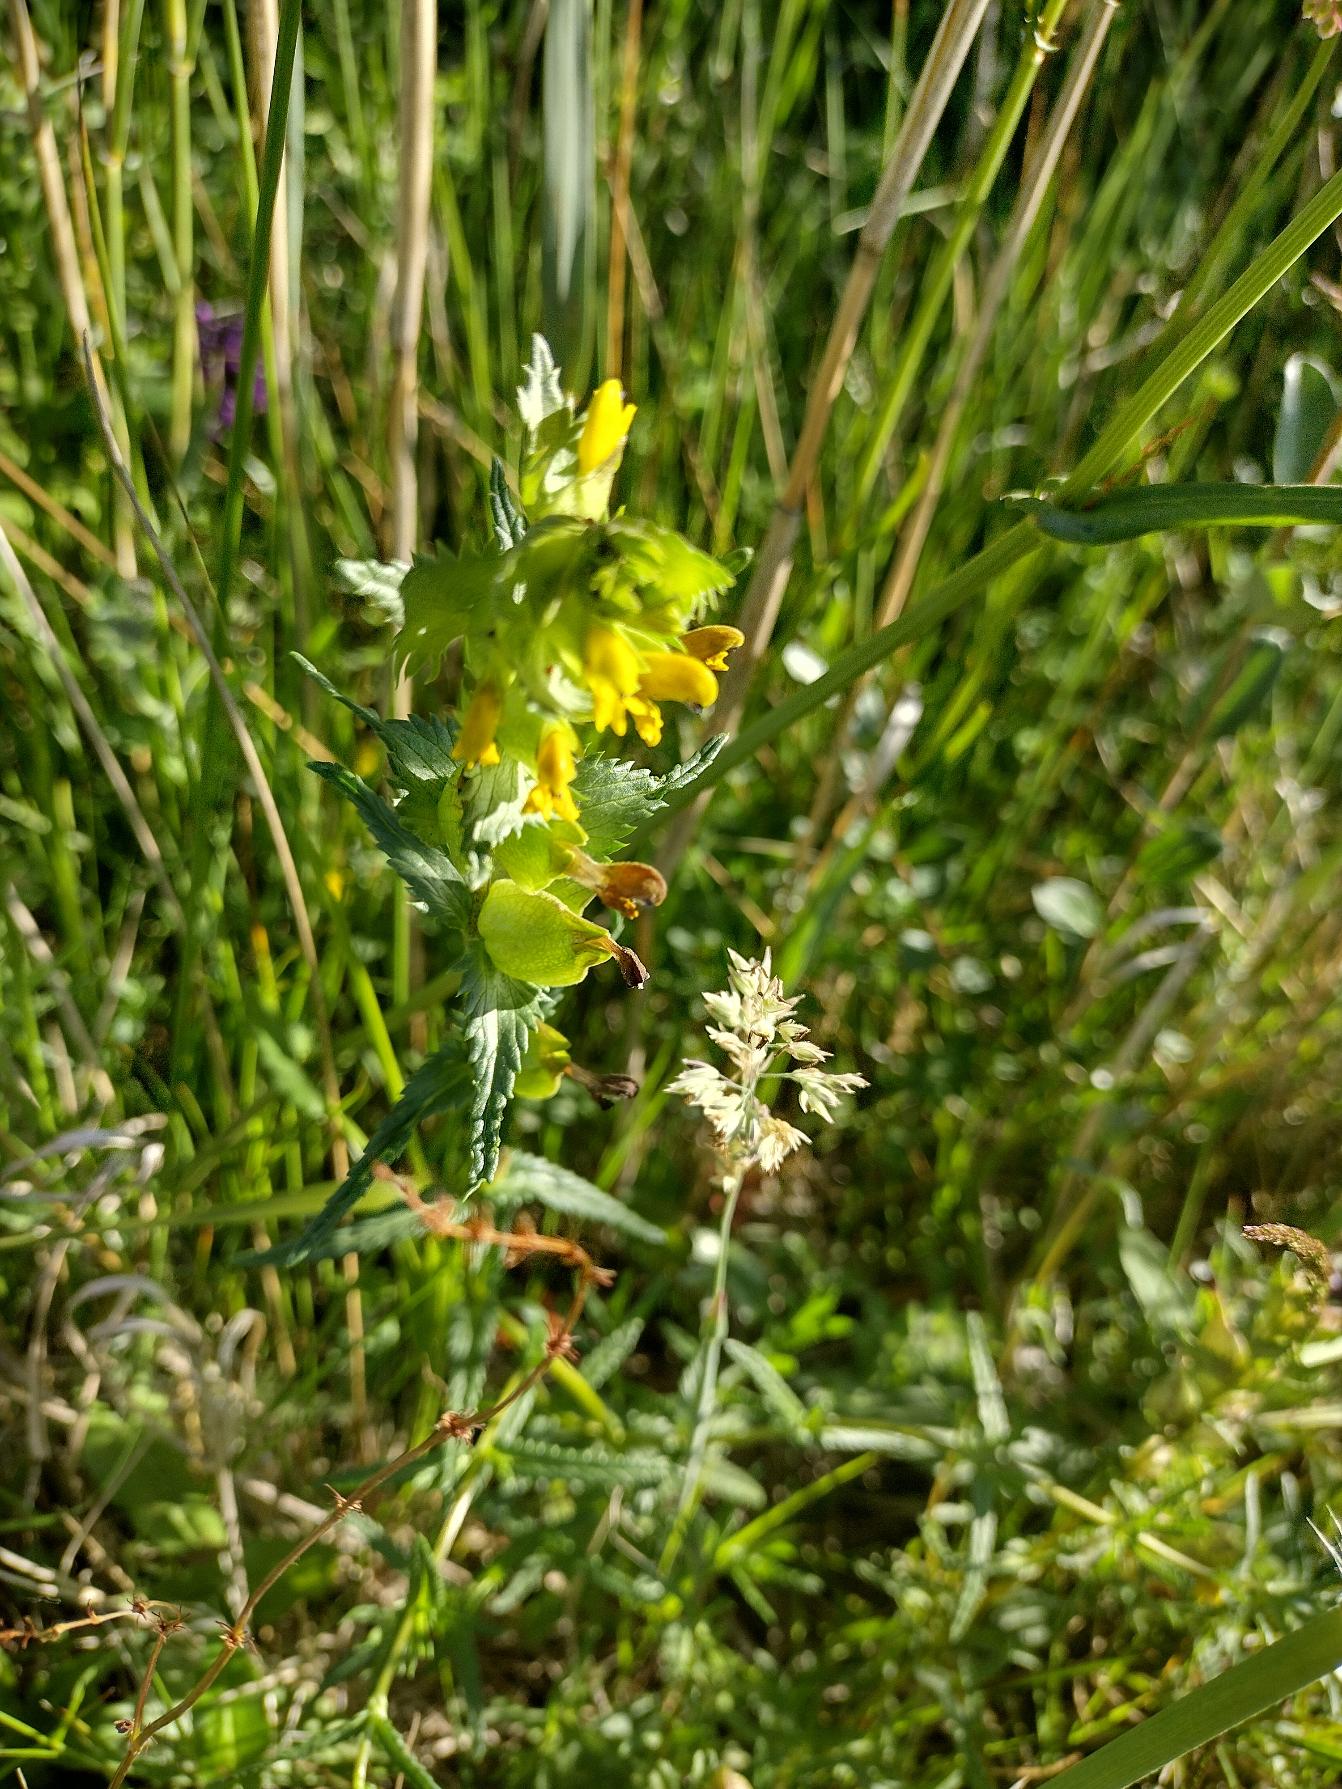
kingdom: Plantae
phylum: Tracheophyta
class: Magnoliopsida
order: Lamiales
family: Orobanchaceae
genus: Rhinanthus
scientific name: Rhinanthus
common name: Stor skjaller
